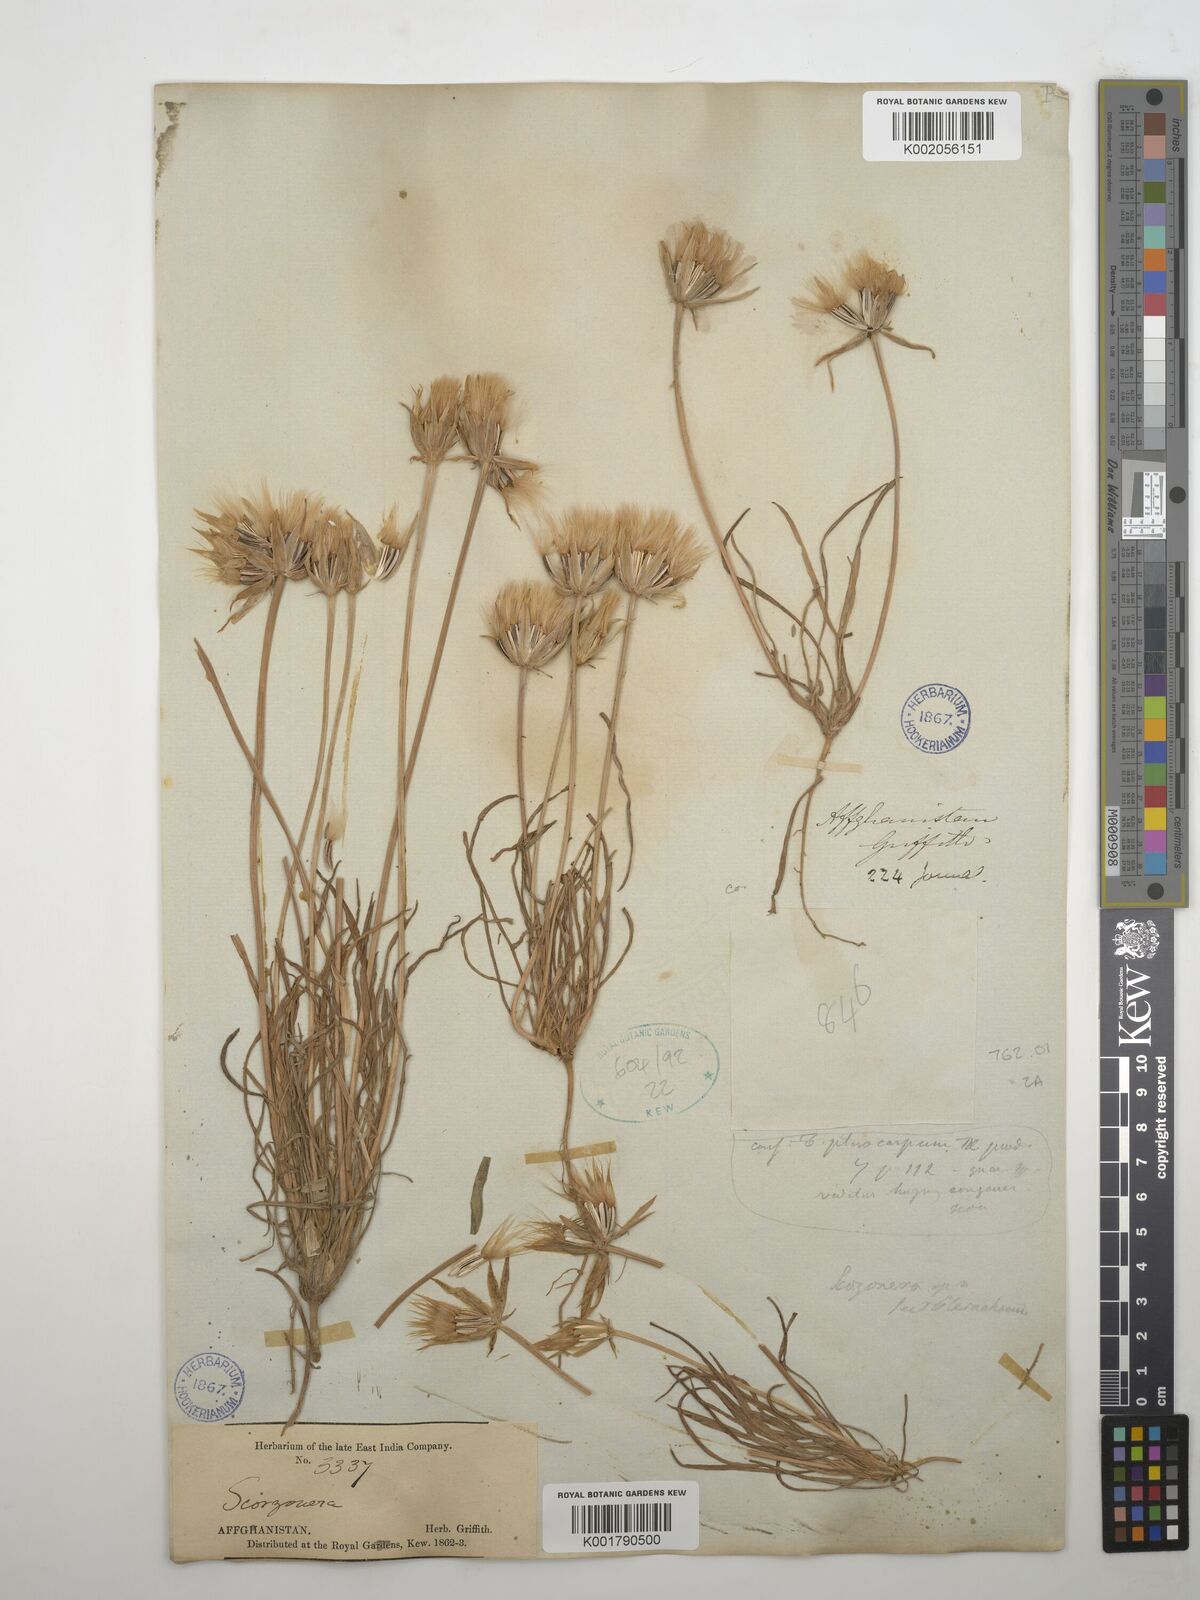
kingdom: Plantae
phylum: Tracheophyta
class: Magnoliopsida
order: Asterales
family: Asteraceae
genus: Pterachaenia
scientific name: Pterachaenia stewartii
